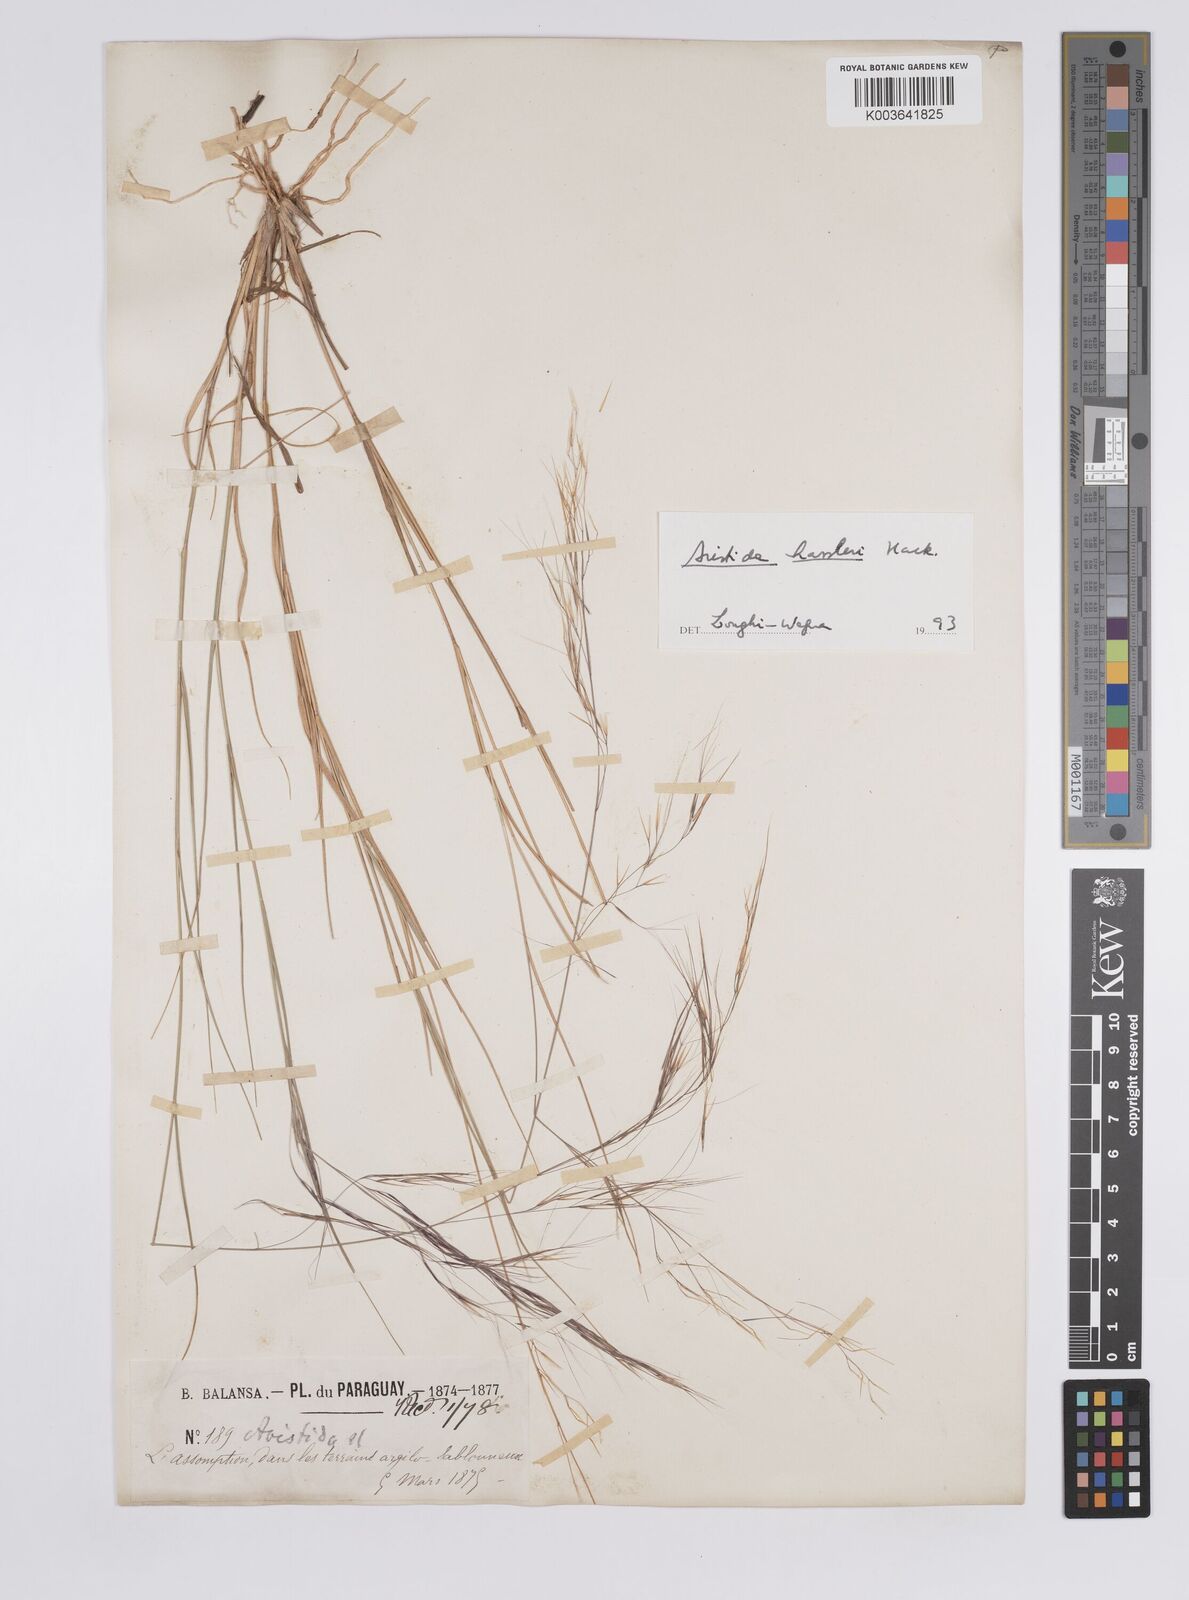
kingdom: Plantae
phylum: Tracheophyta
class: Liliopsida
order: Poales
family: Poaceae
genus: Aristida
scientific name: Aristida hassleri
